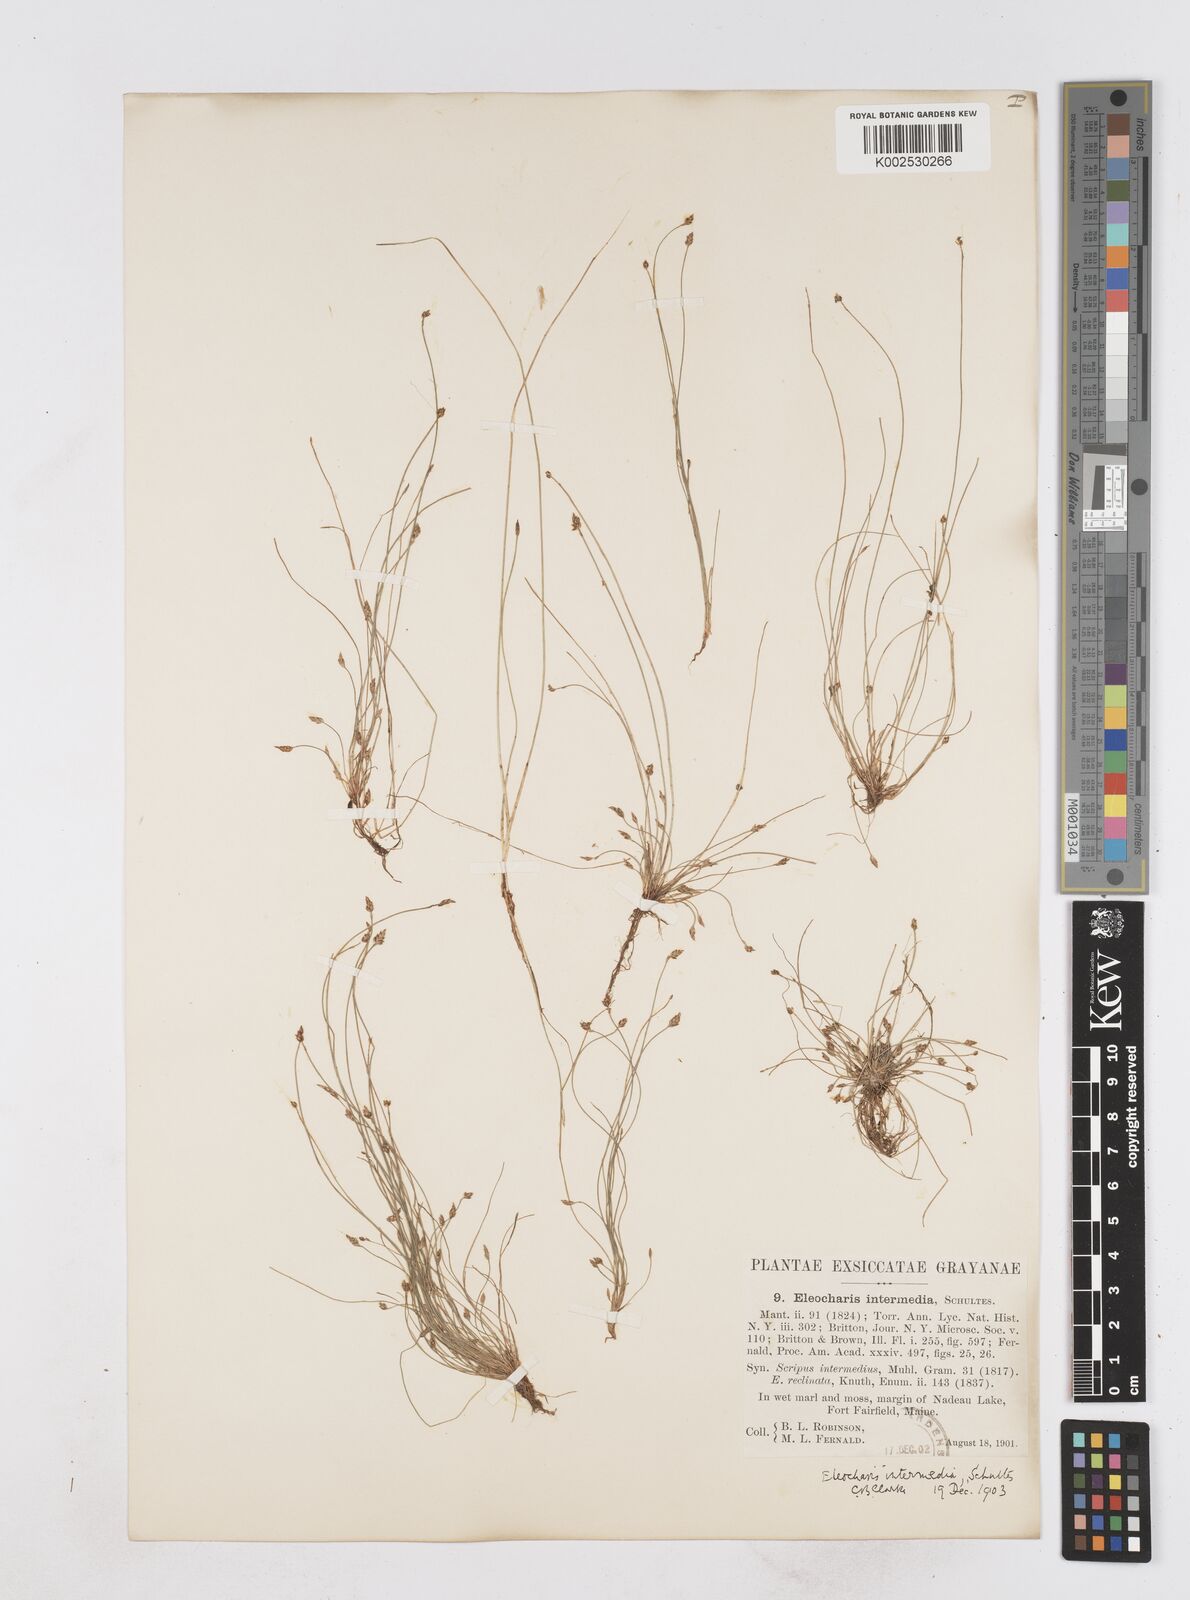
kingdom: Plantae
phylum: Tracheophyta
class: Liliopsida
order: Poales
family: Cyperaceae
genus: Eleocharis
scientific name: Eleocharis intermedia
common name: Intermediate spikerush
